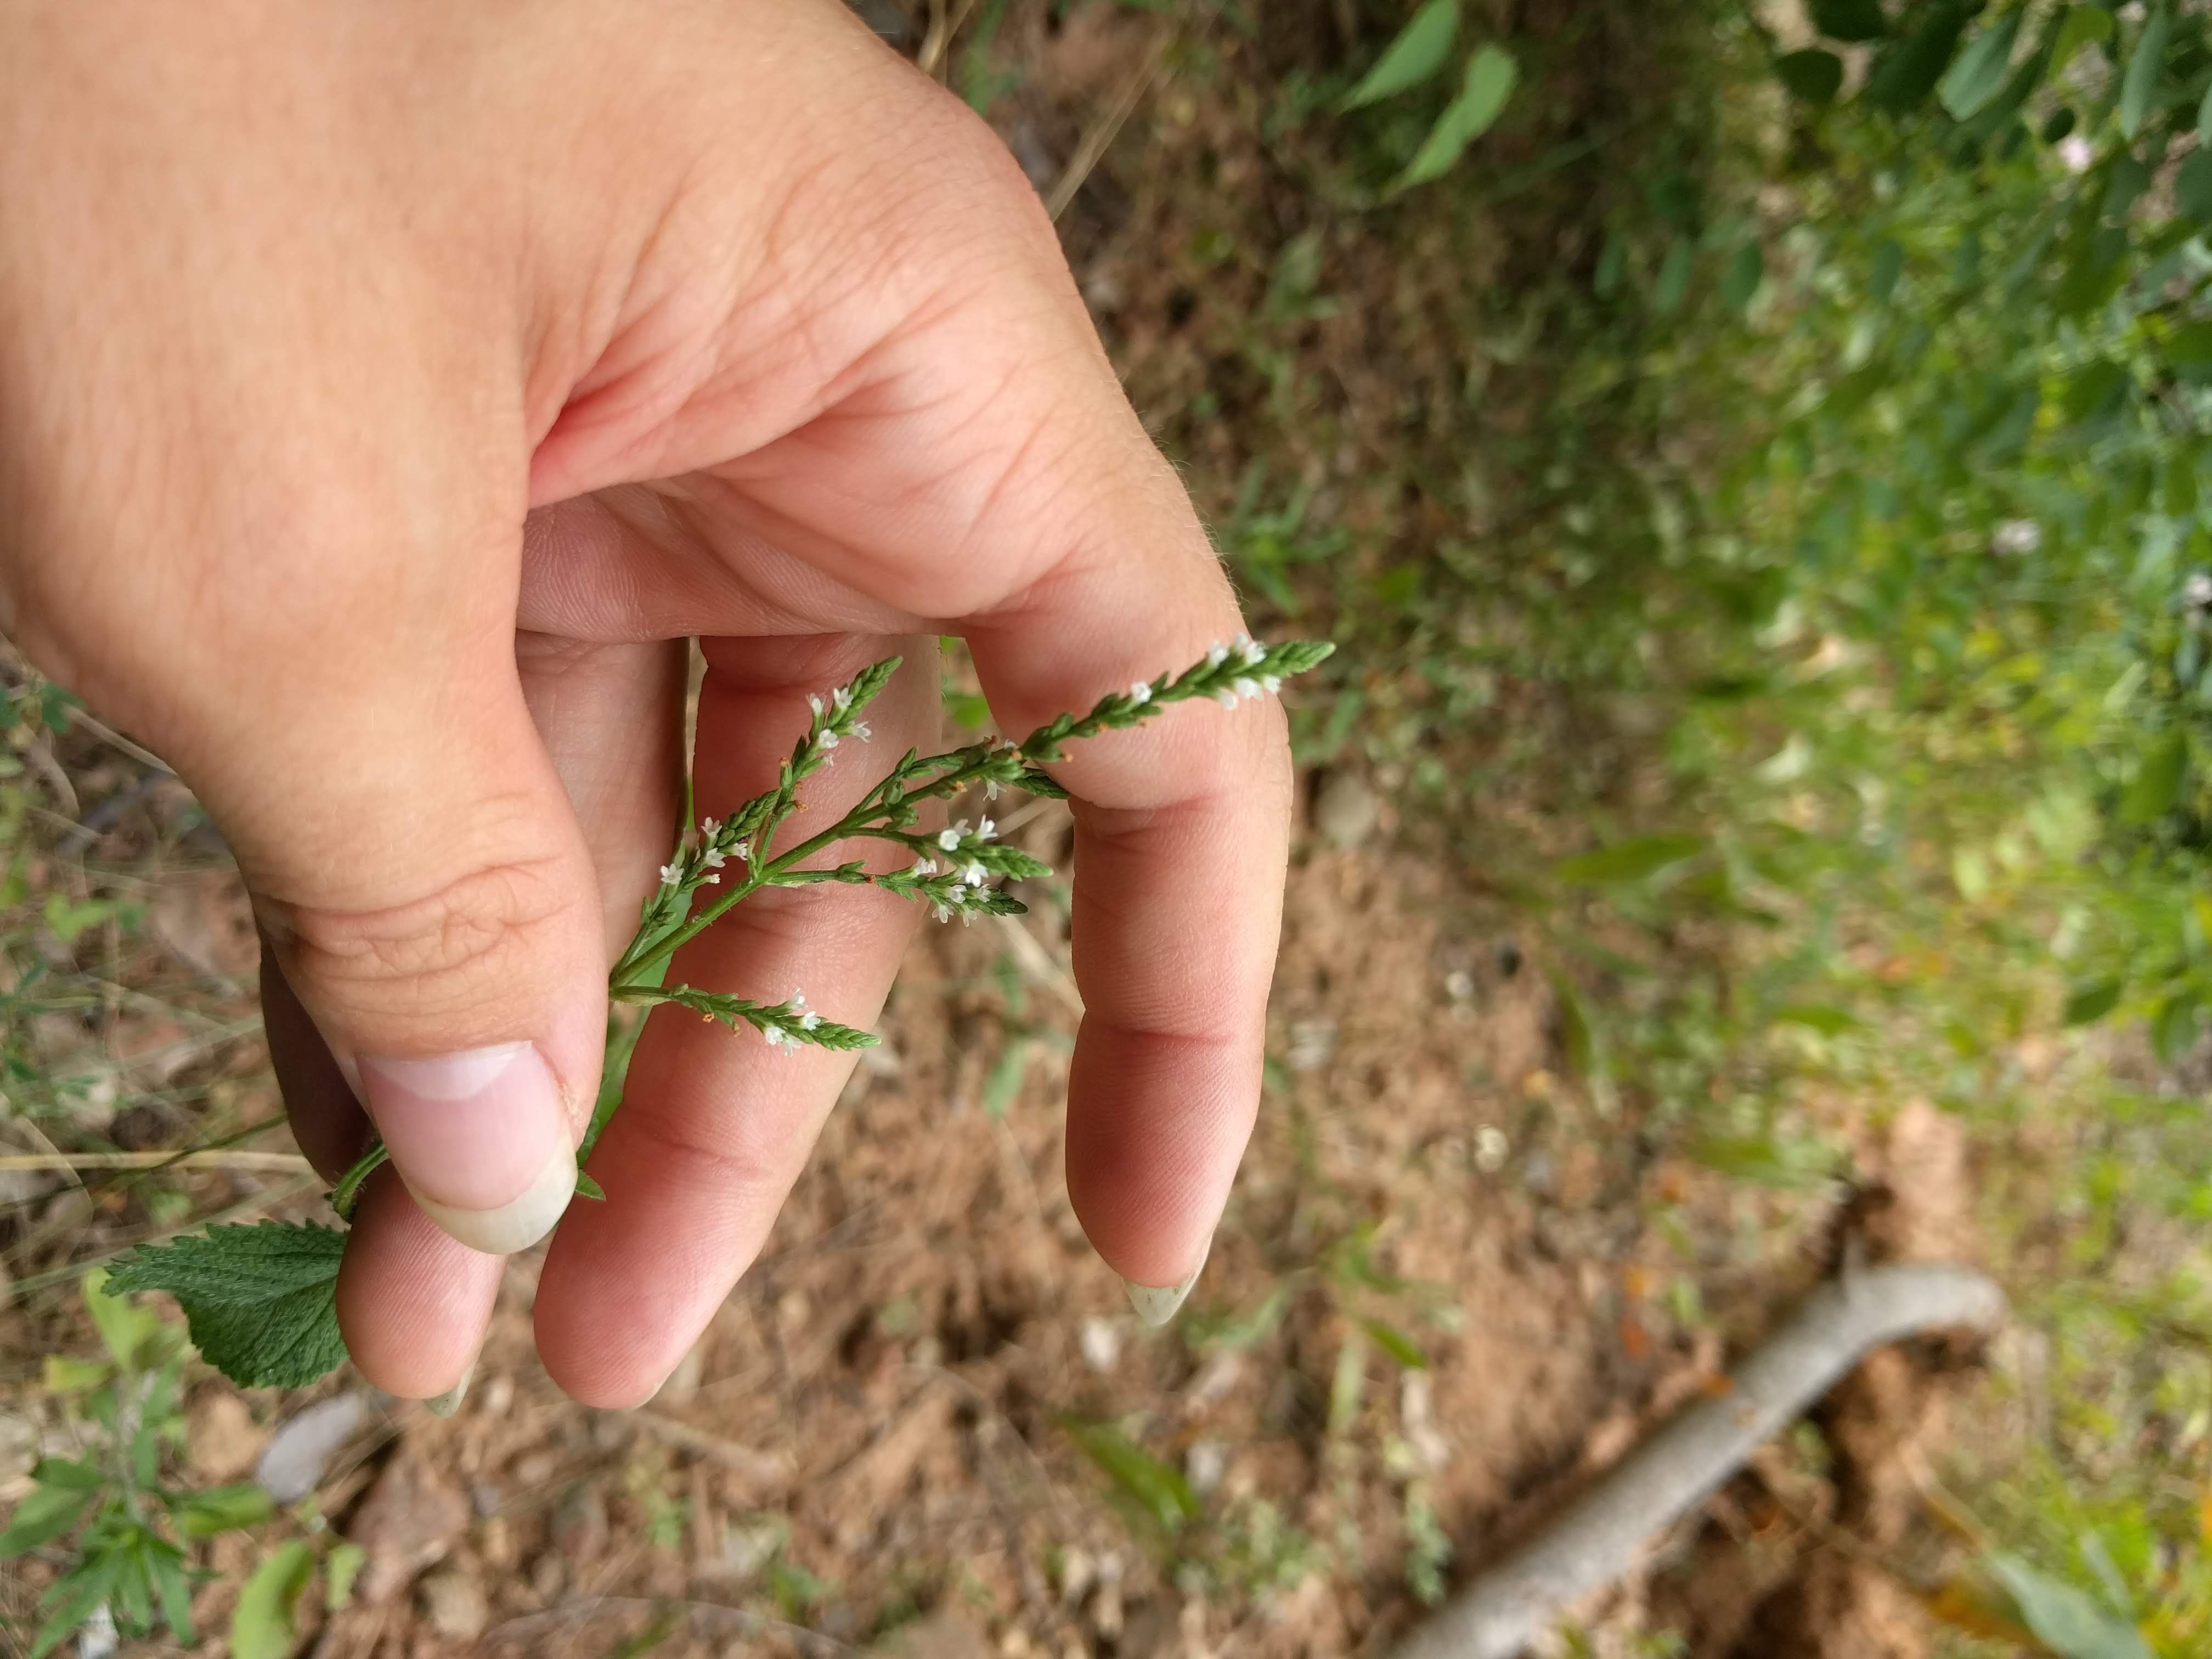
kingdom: Plantae
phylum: Tracheophyta
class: Magnoliopsida
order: Lamiales
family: Verbenaceae
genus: Verbena
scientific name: Verbena urticifolia
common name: Nettle-leaved vervain
